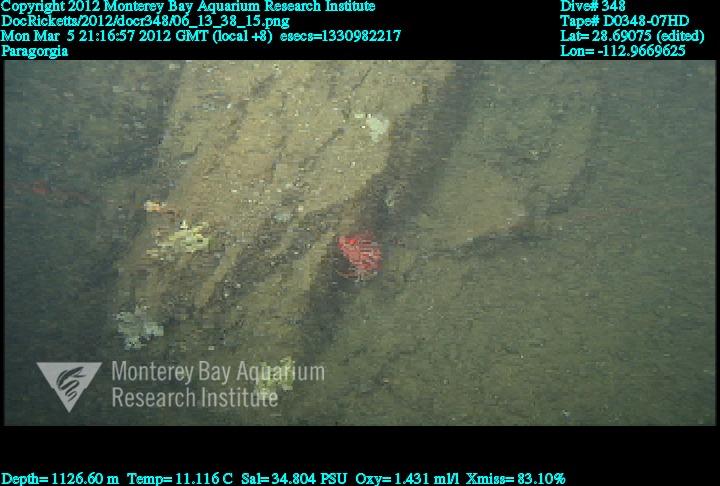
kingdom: Animalia
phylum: Cnidaria
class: Anthozoa
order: Scleralcyonacea
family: Coralliidae
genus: Paragorgia
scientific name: Paragorgia
